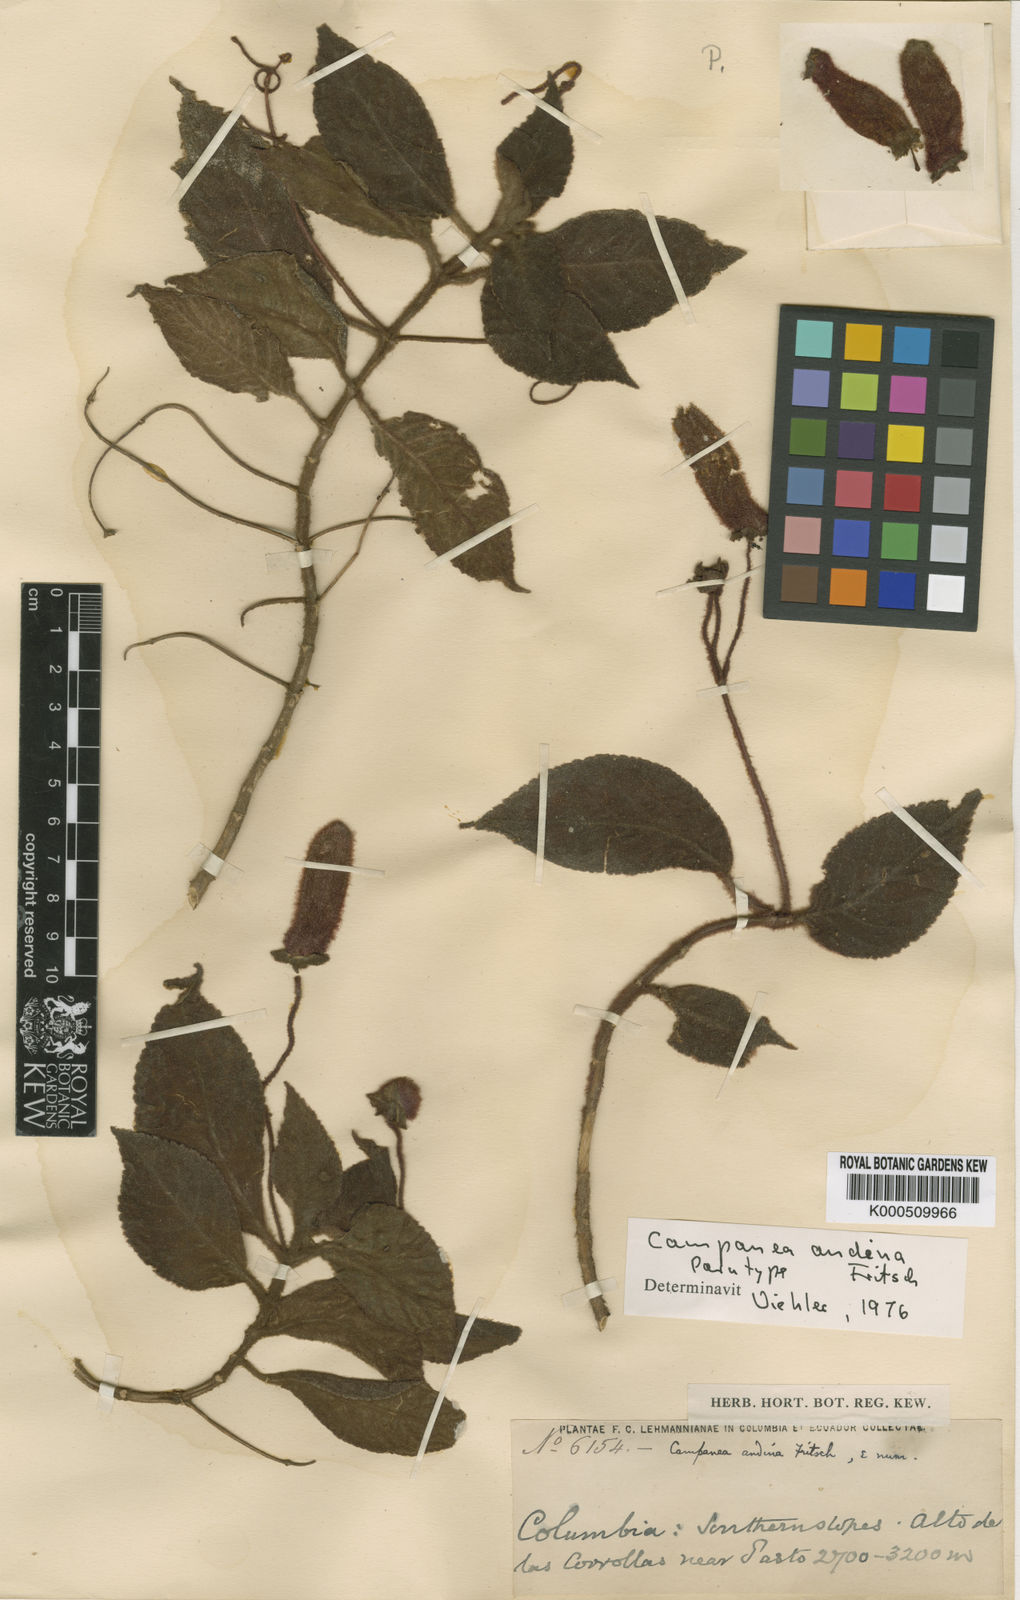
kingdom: Plantae
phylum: Tracheophyta
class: Magnoliopsida
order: Lamiales
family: Gesneriaceae
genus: Kohleria
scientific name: Kohleria
